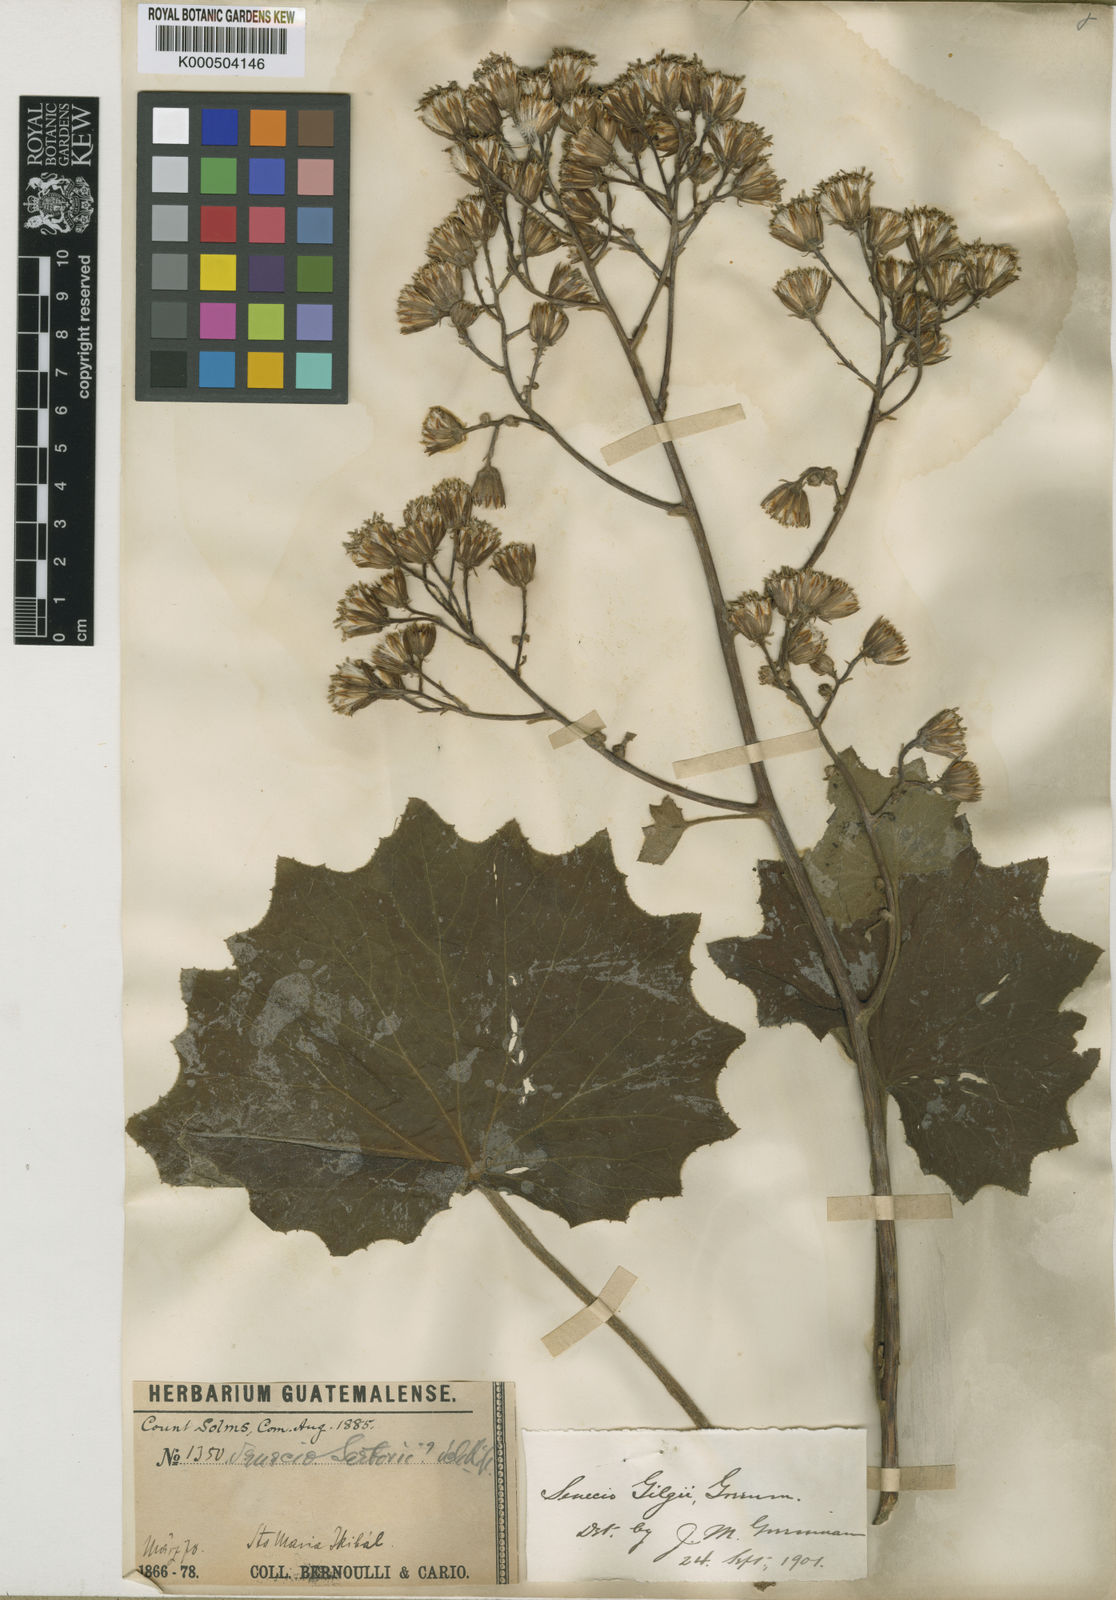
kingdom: Plantae
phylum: Tracheophyta
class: Magnoliopsida
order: Asterales
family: Asteraceae
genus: Roldana
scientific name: Roldana gilgii
